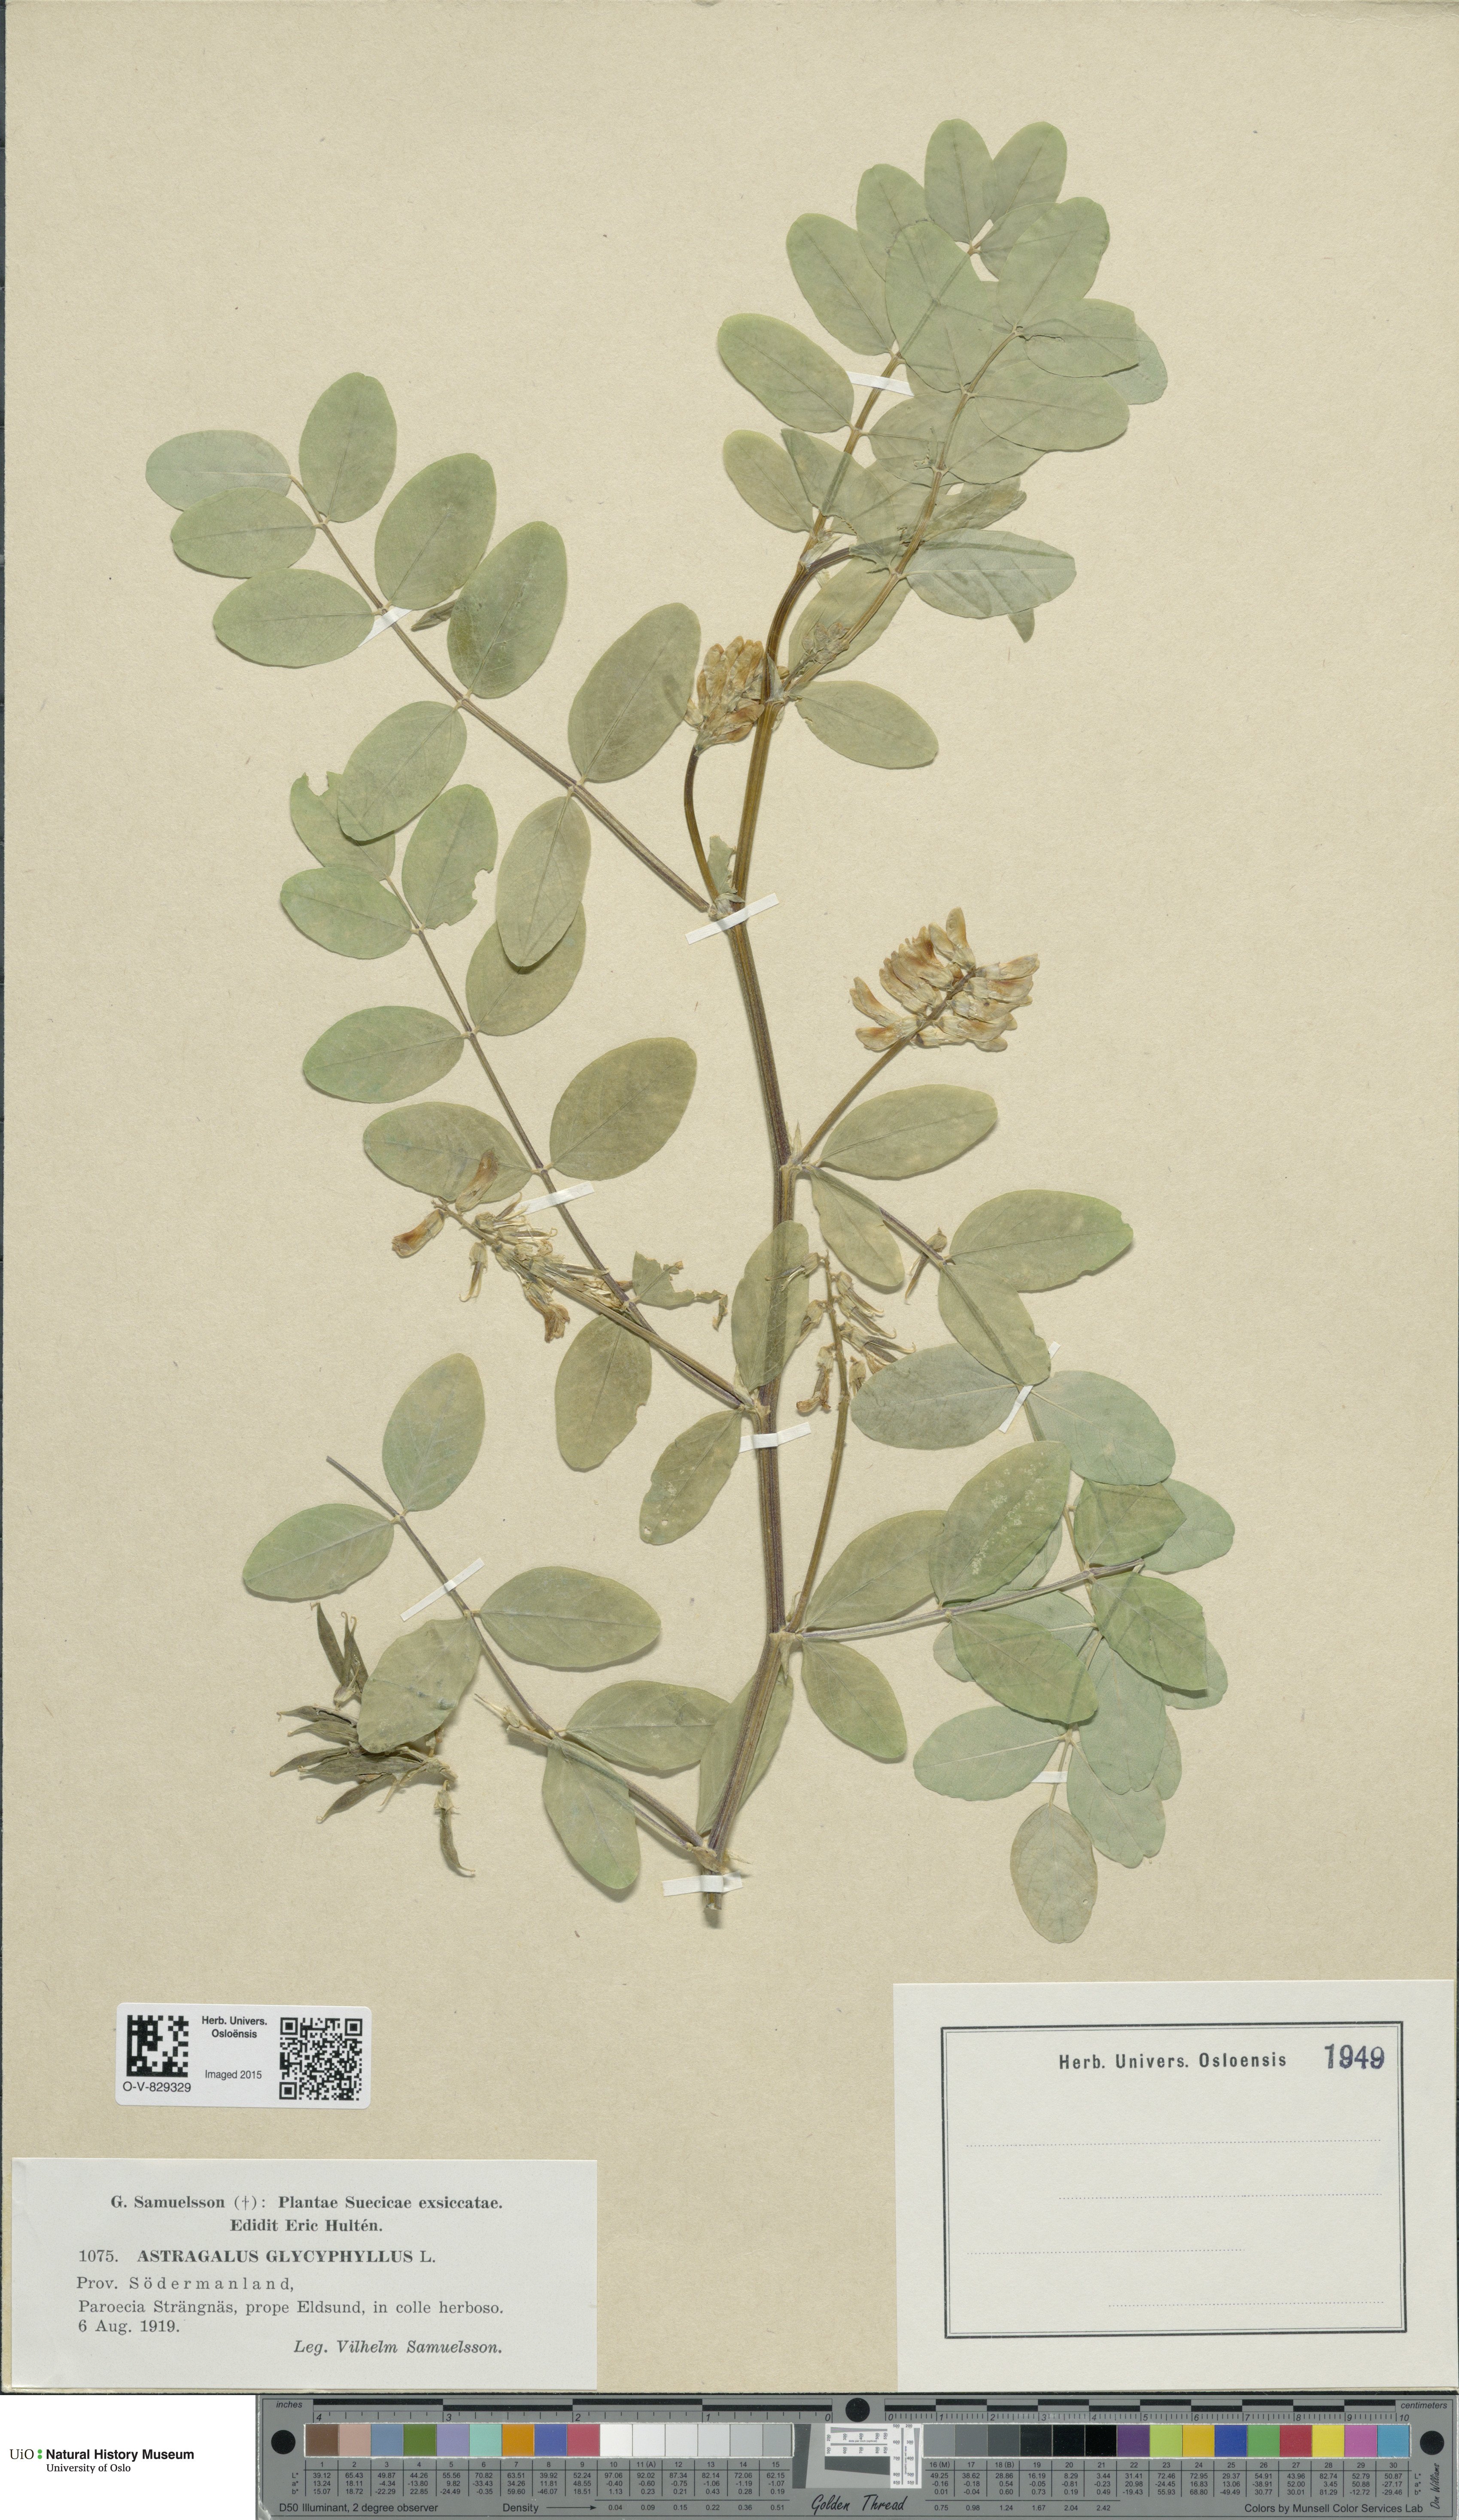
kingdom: Plantae
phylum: Tracheophyta
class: Magnoliopsida
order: Fabales
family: Fabaceae
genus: Astragalus
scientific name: Astragalus glycyphyllos
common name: Wild liquorice
